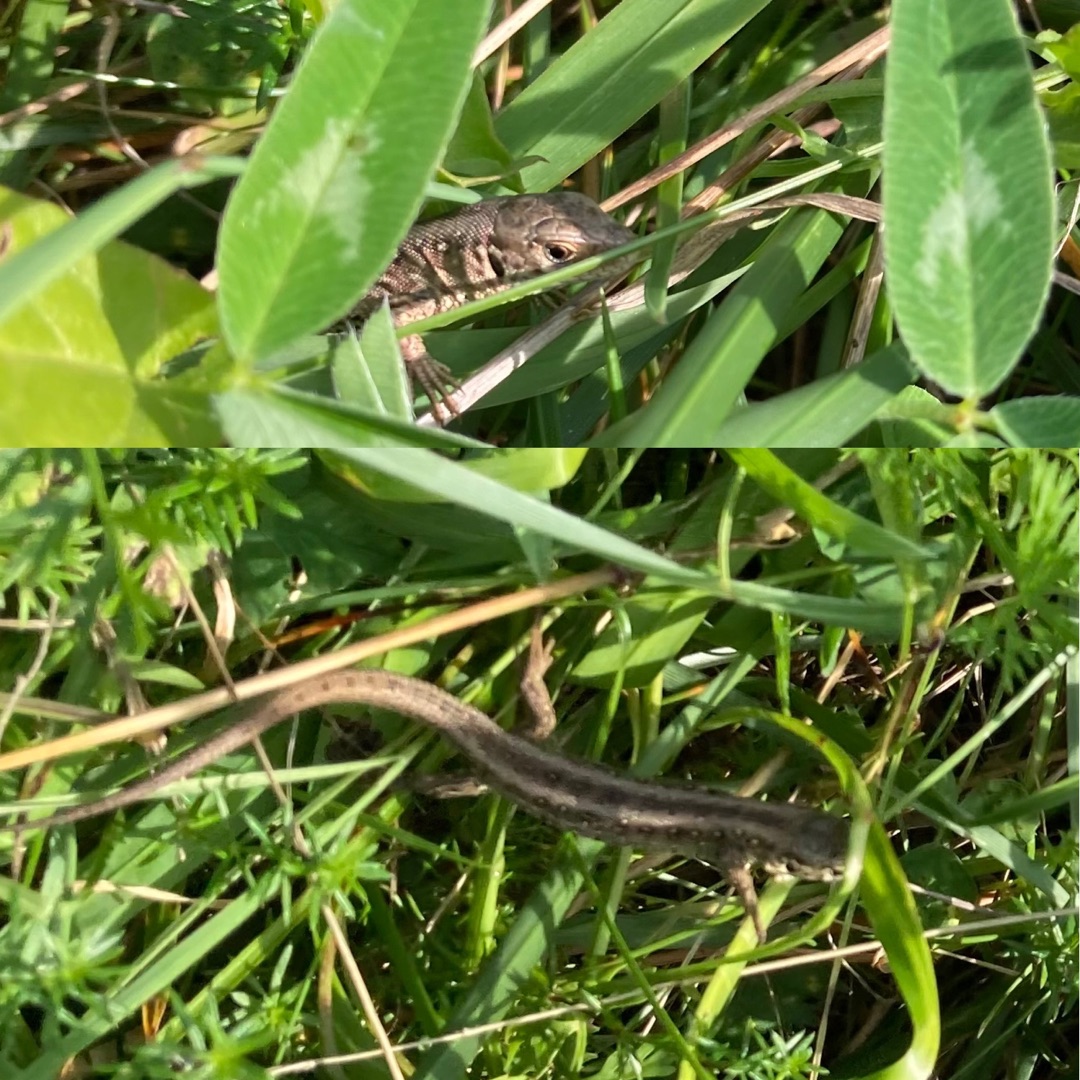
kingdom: Animalia
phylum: Chordata
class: Squamata
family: Lacertidae
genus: Lacerta
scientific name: Lacerta agilis
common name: Markfirben
